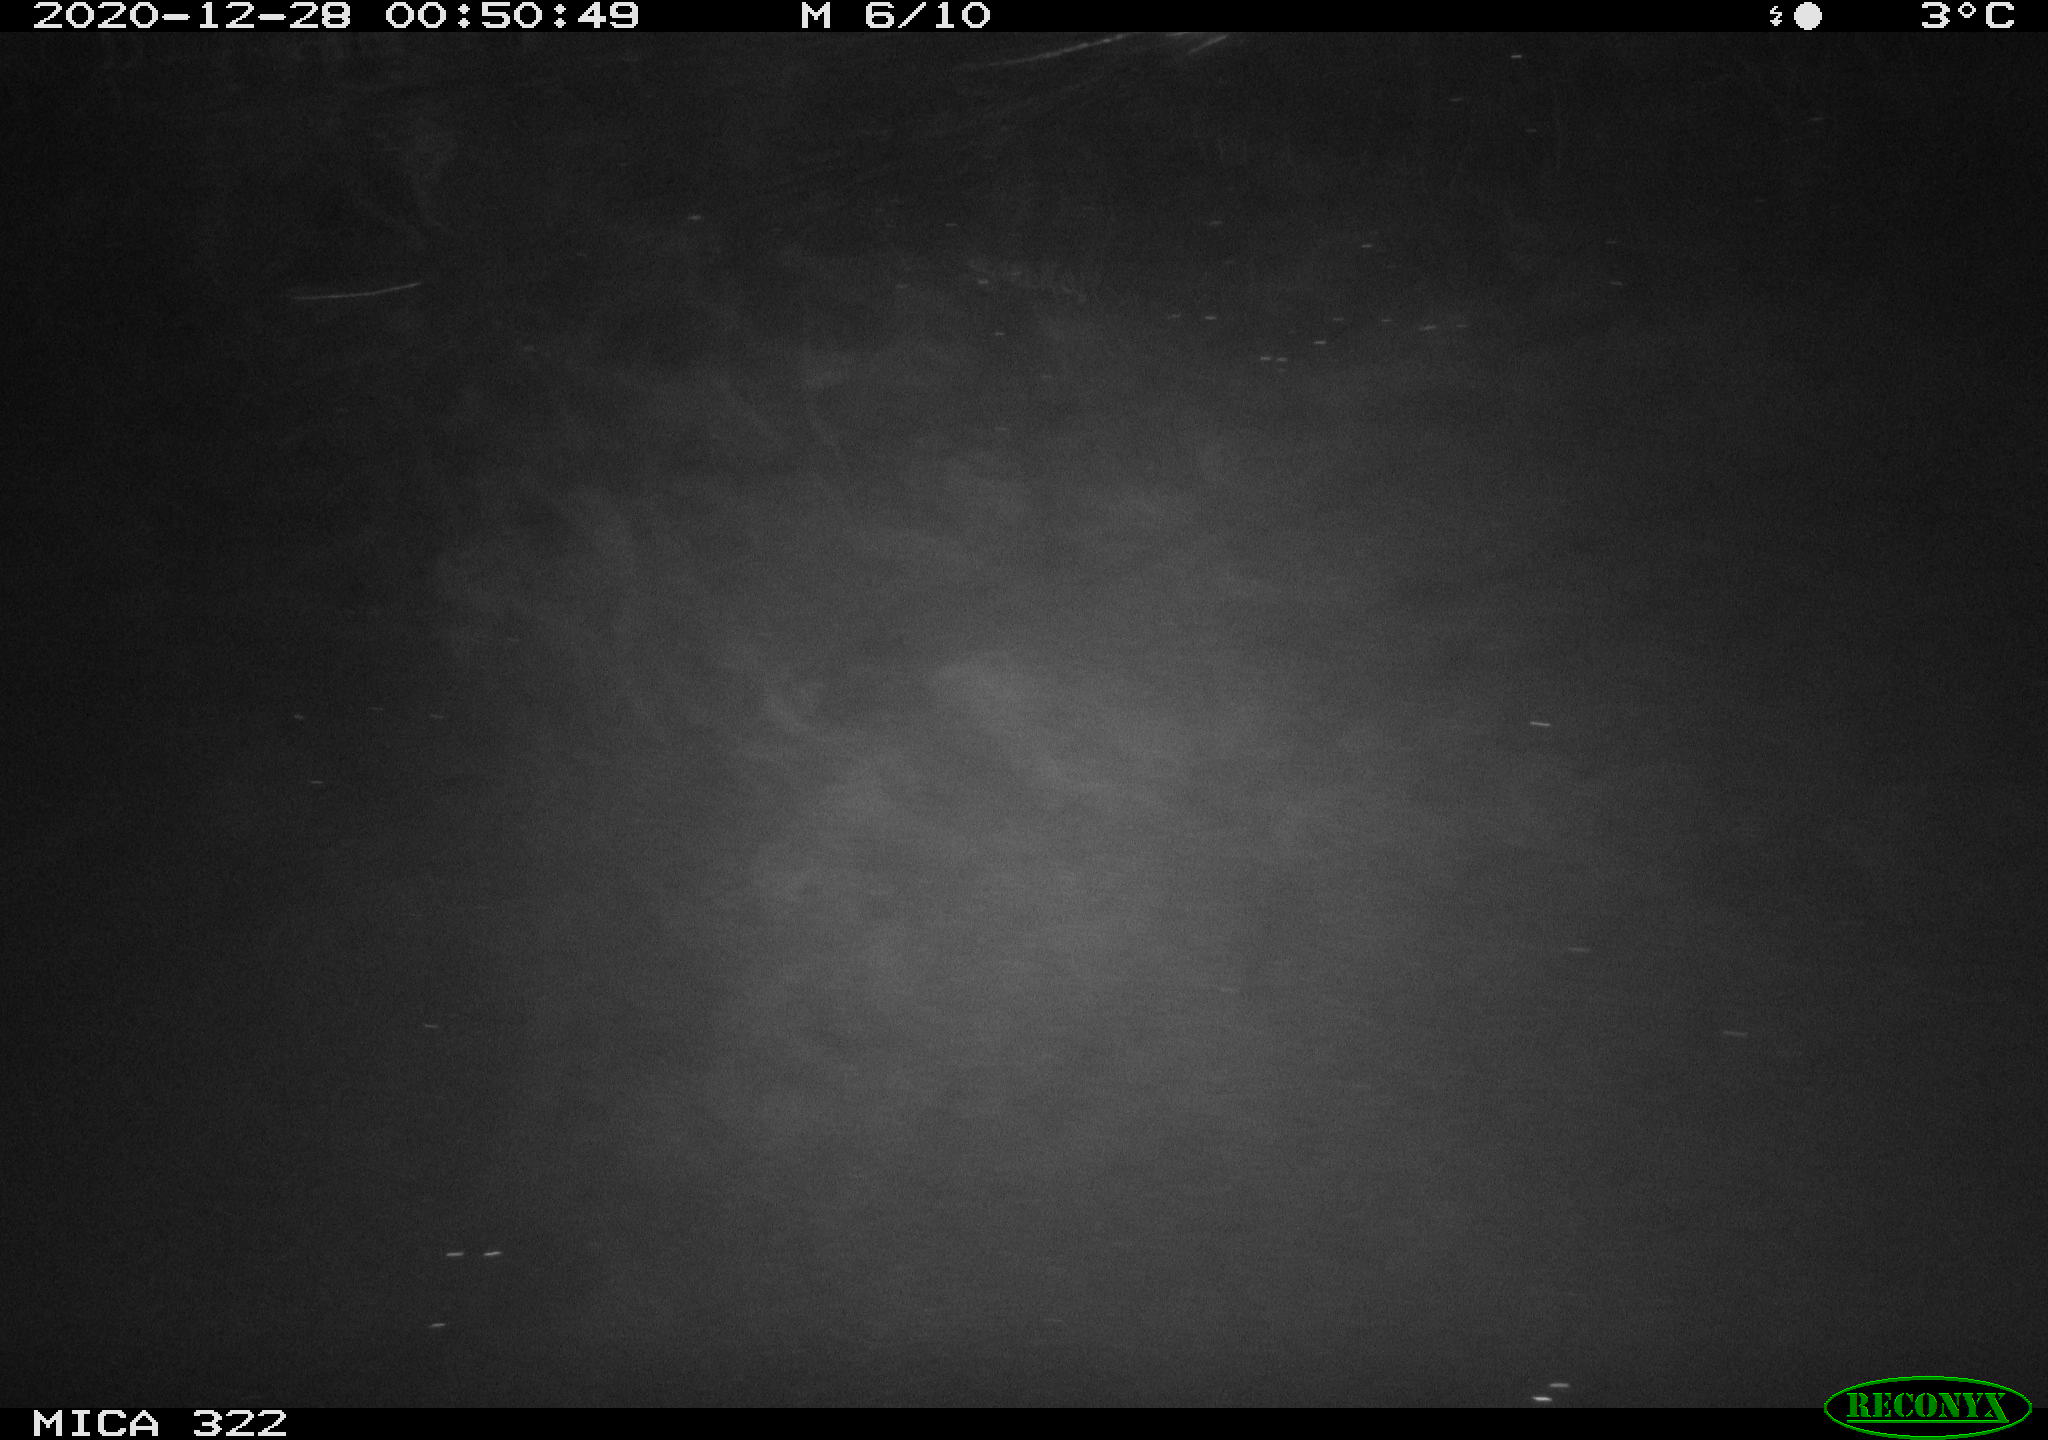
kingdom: Animalia
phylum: Chordata
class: Mammalia
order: Rodentia
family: Muridae
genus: Rattus
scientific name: Rattus norvegicus
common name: Brown rat
